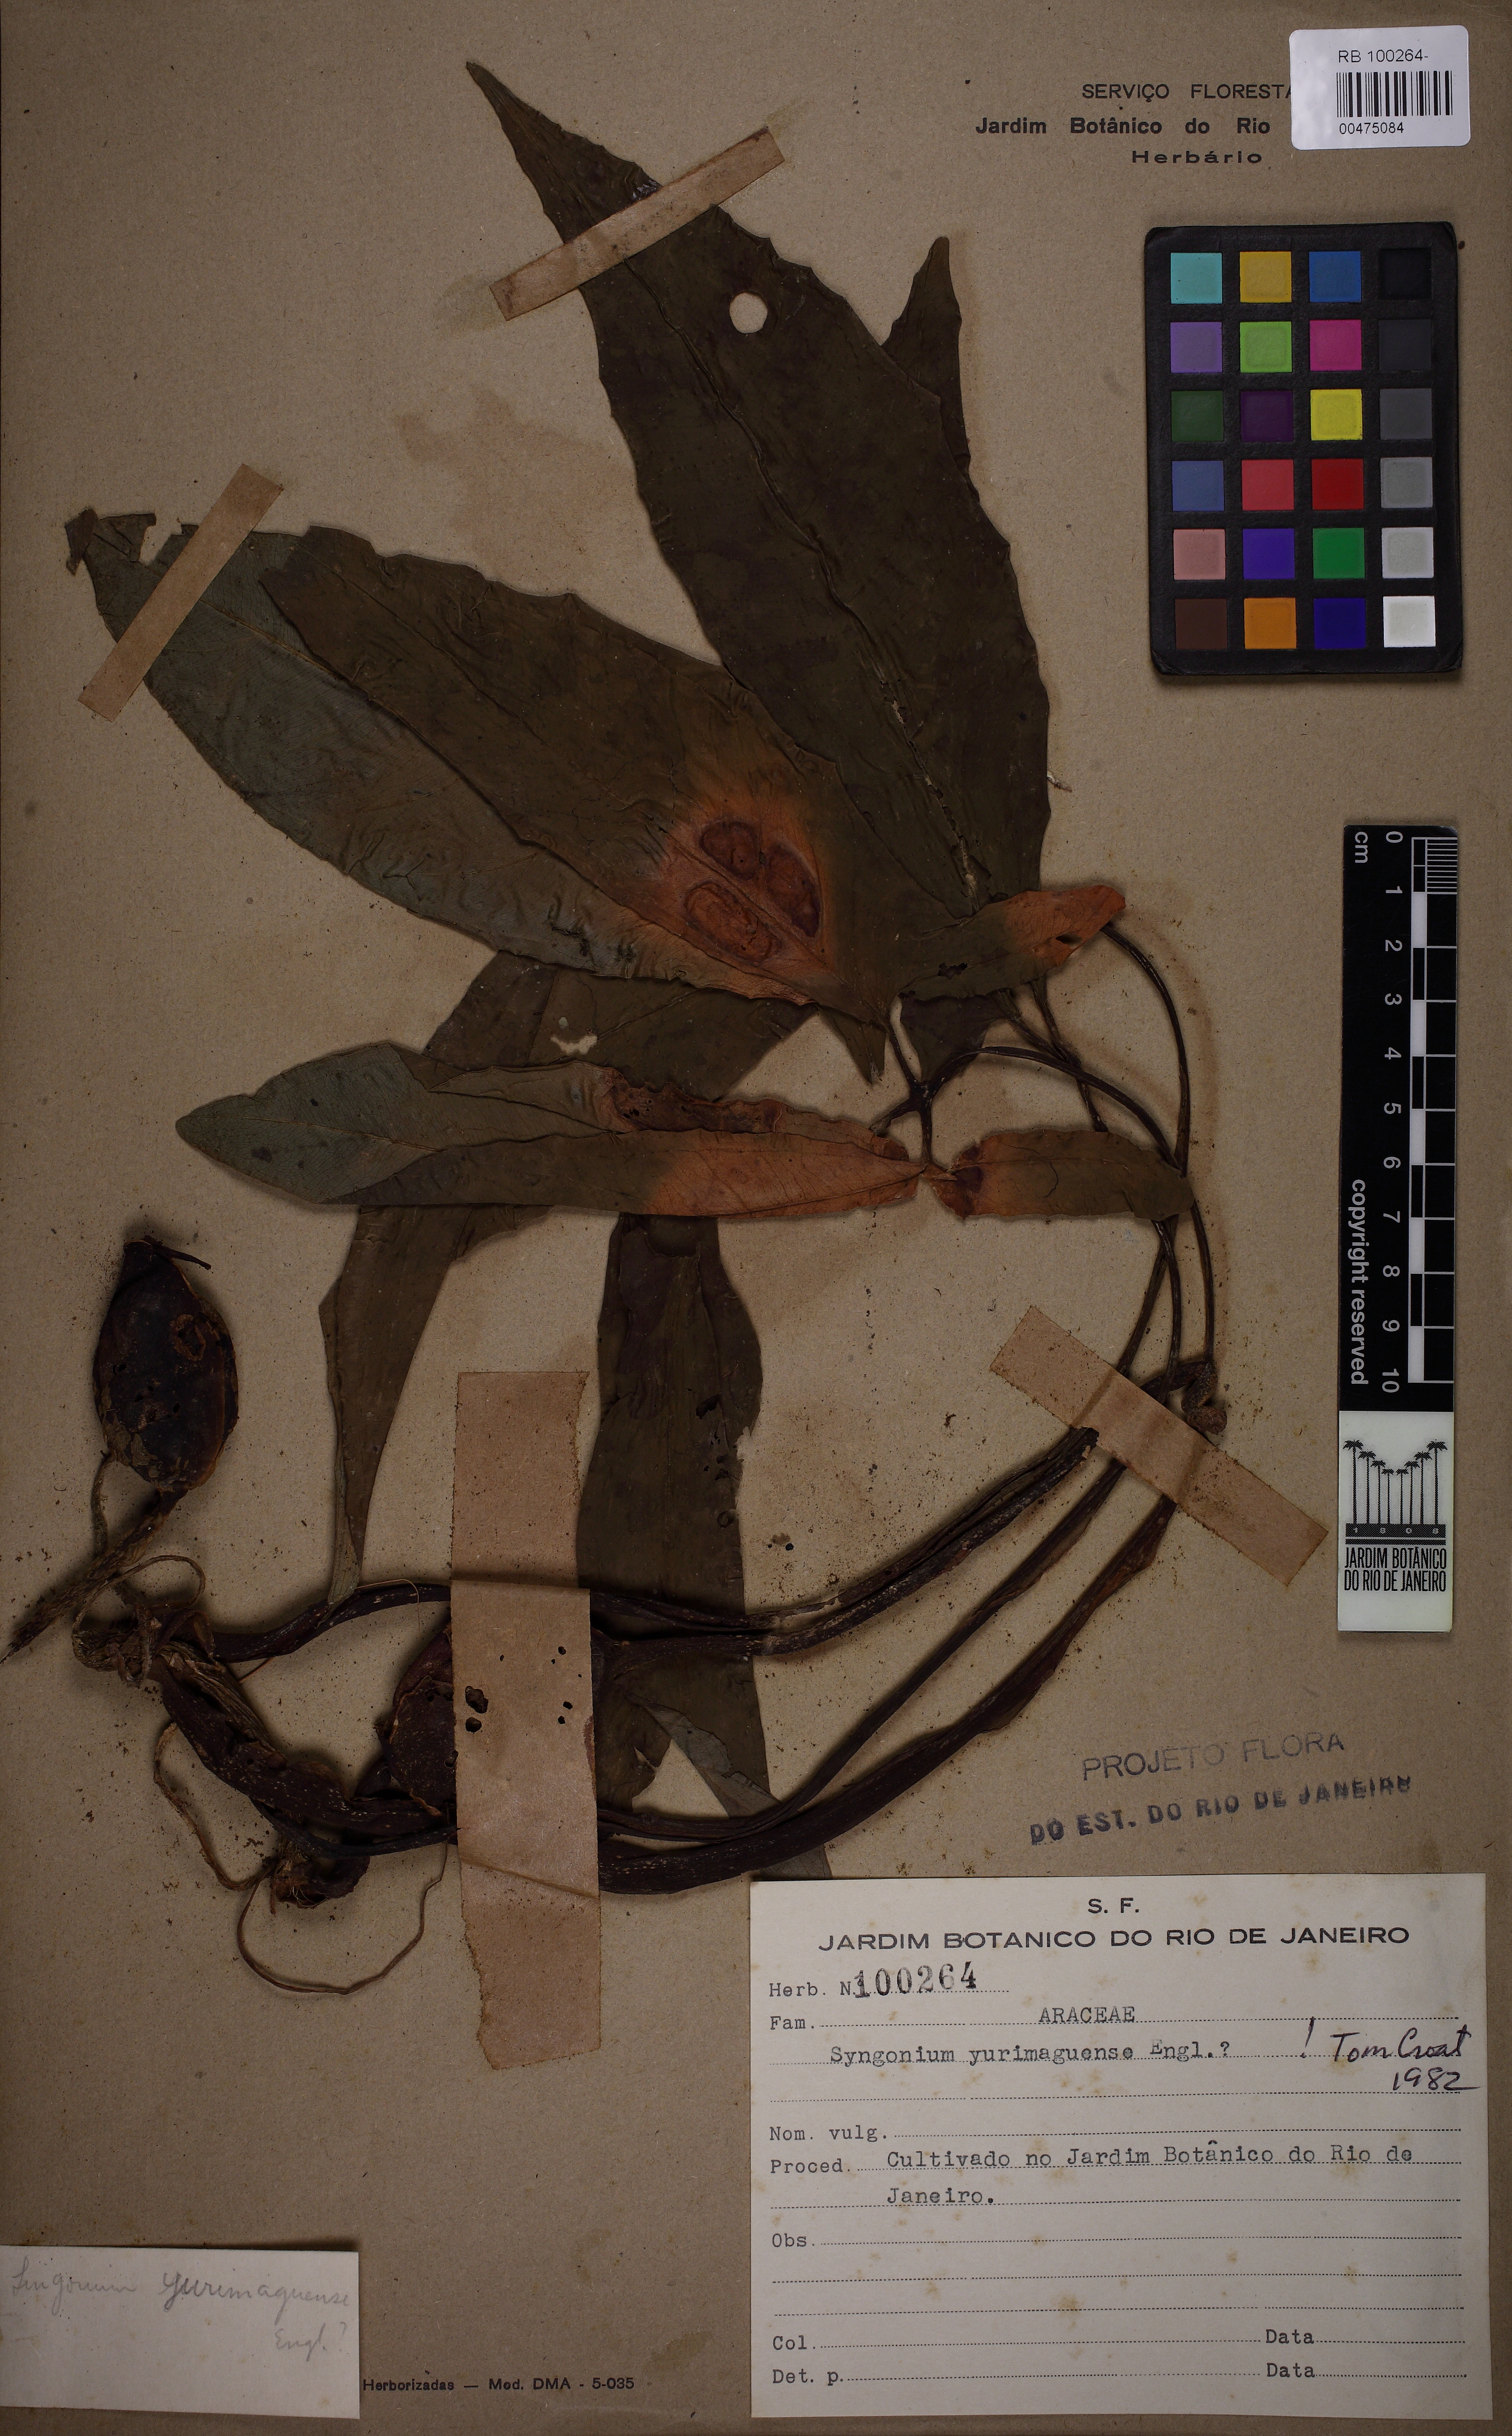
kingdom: Plantae
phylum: Tracheophyta
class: Liliopsida
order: Alismatales
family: Araceae
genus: Syngonium
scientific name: Syngonium yurimaguense
